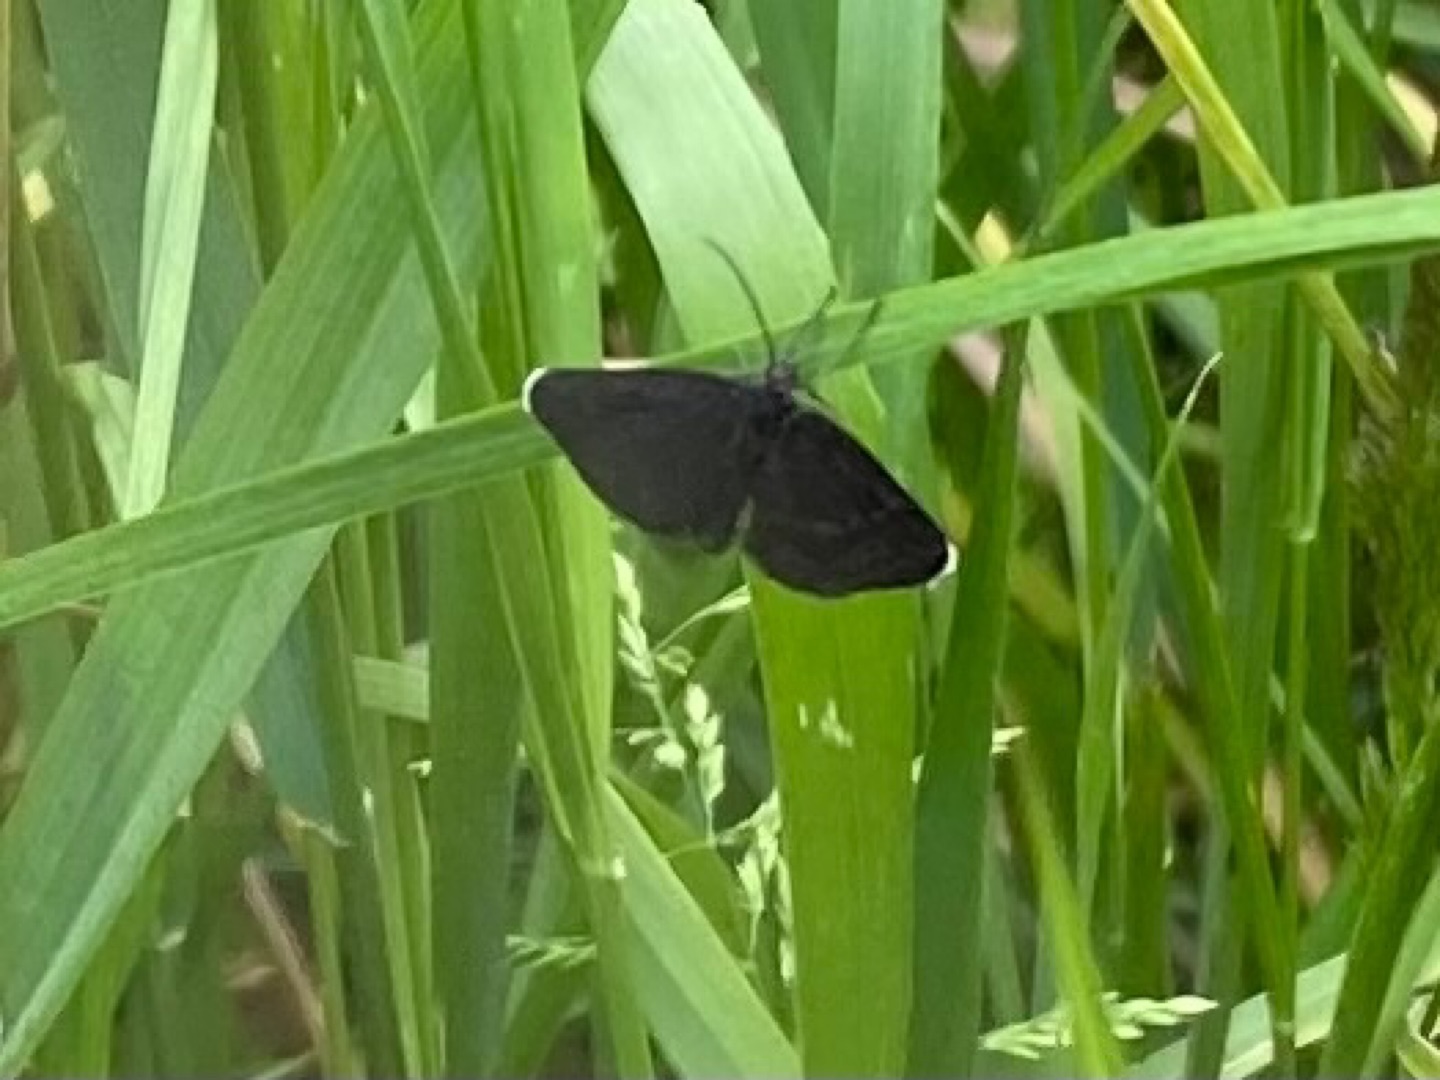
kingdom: Animalia
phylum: Arthropoda
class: Insecta
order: Lepidoptera
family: Geometridae
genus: Odezia
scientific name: Odezia atrata
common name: Sort måler
